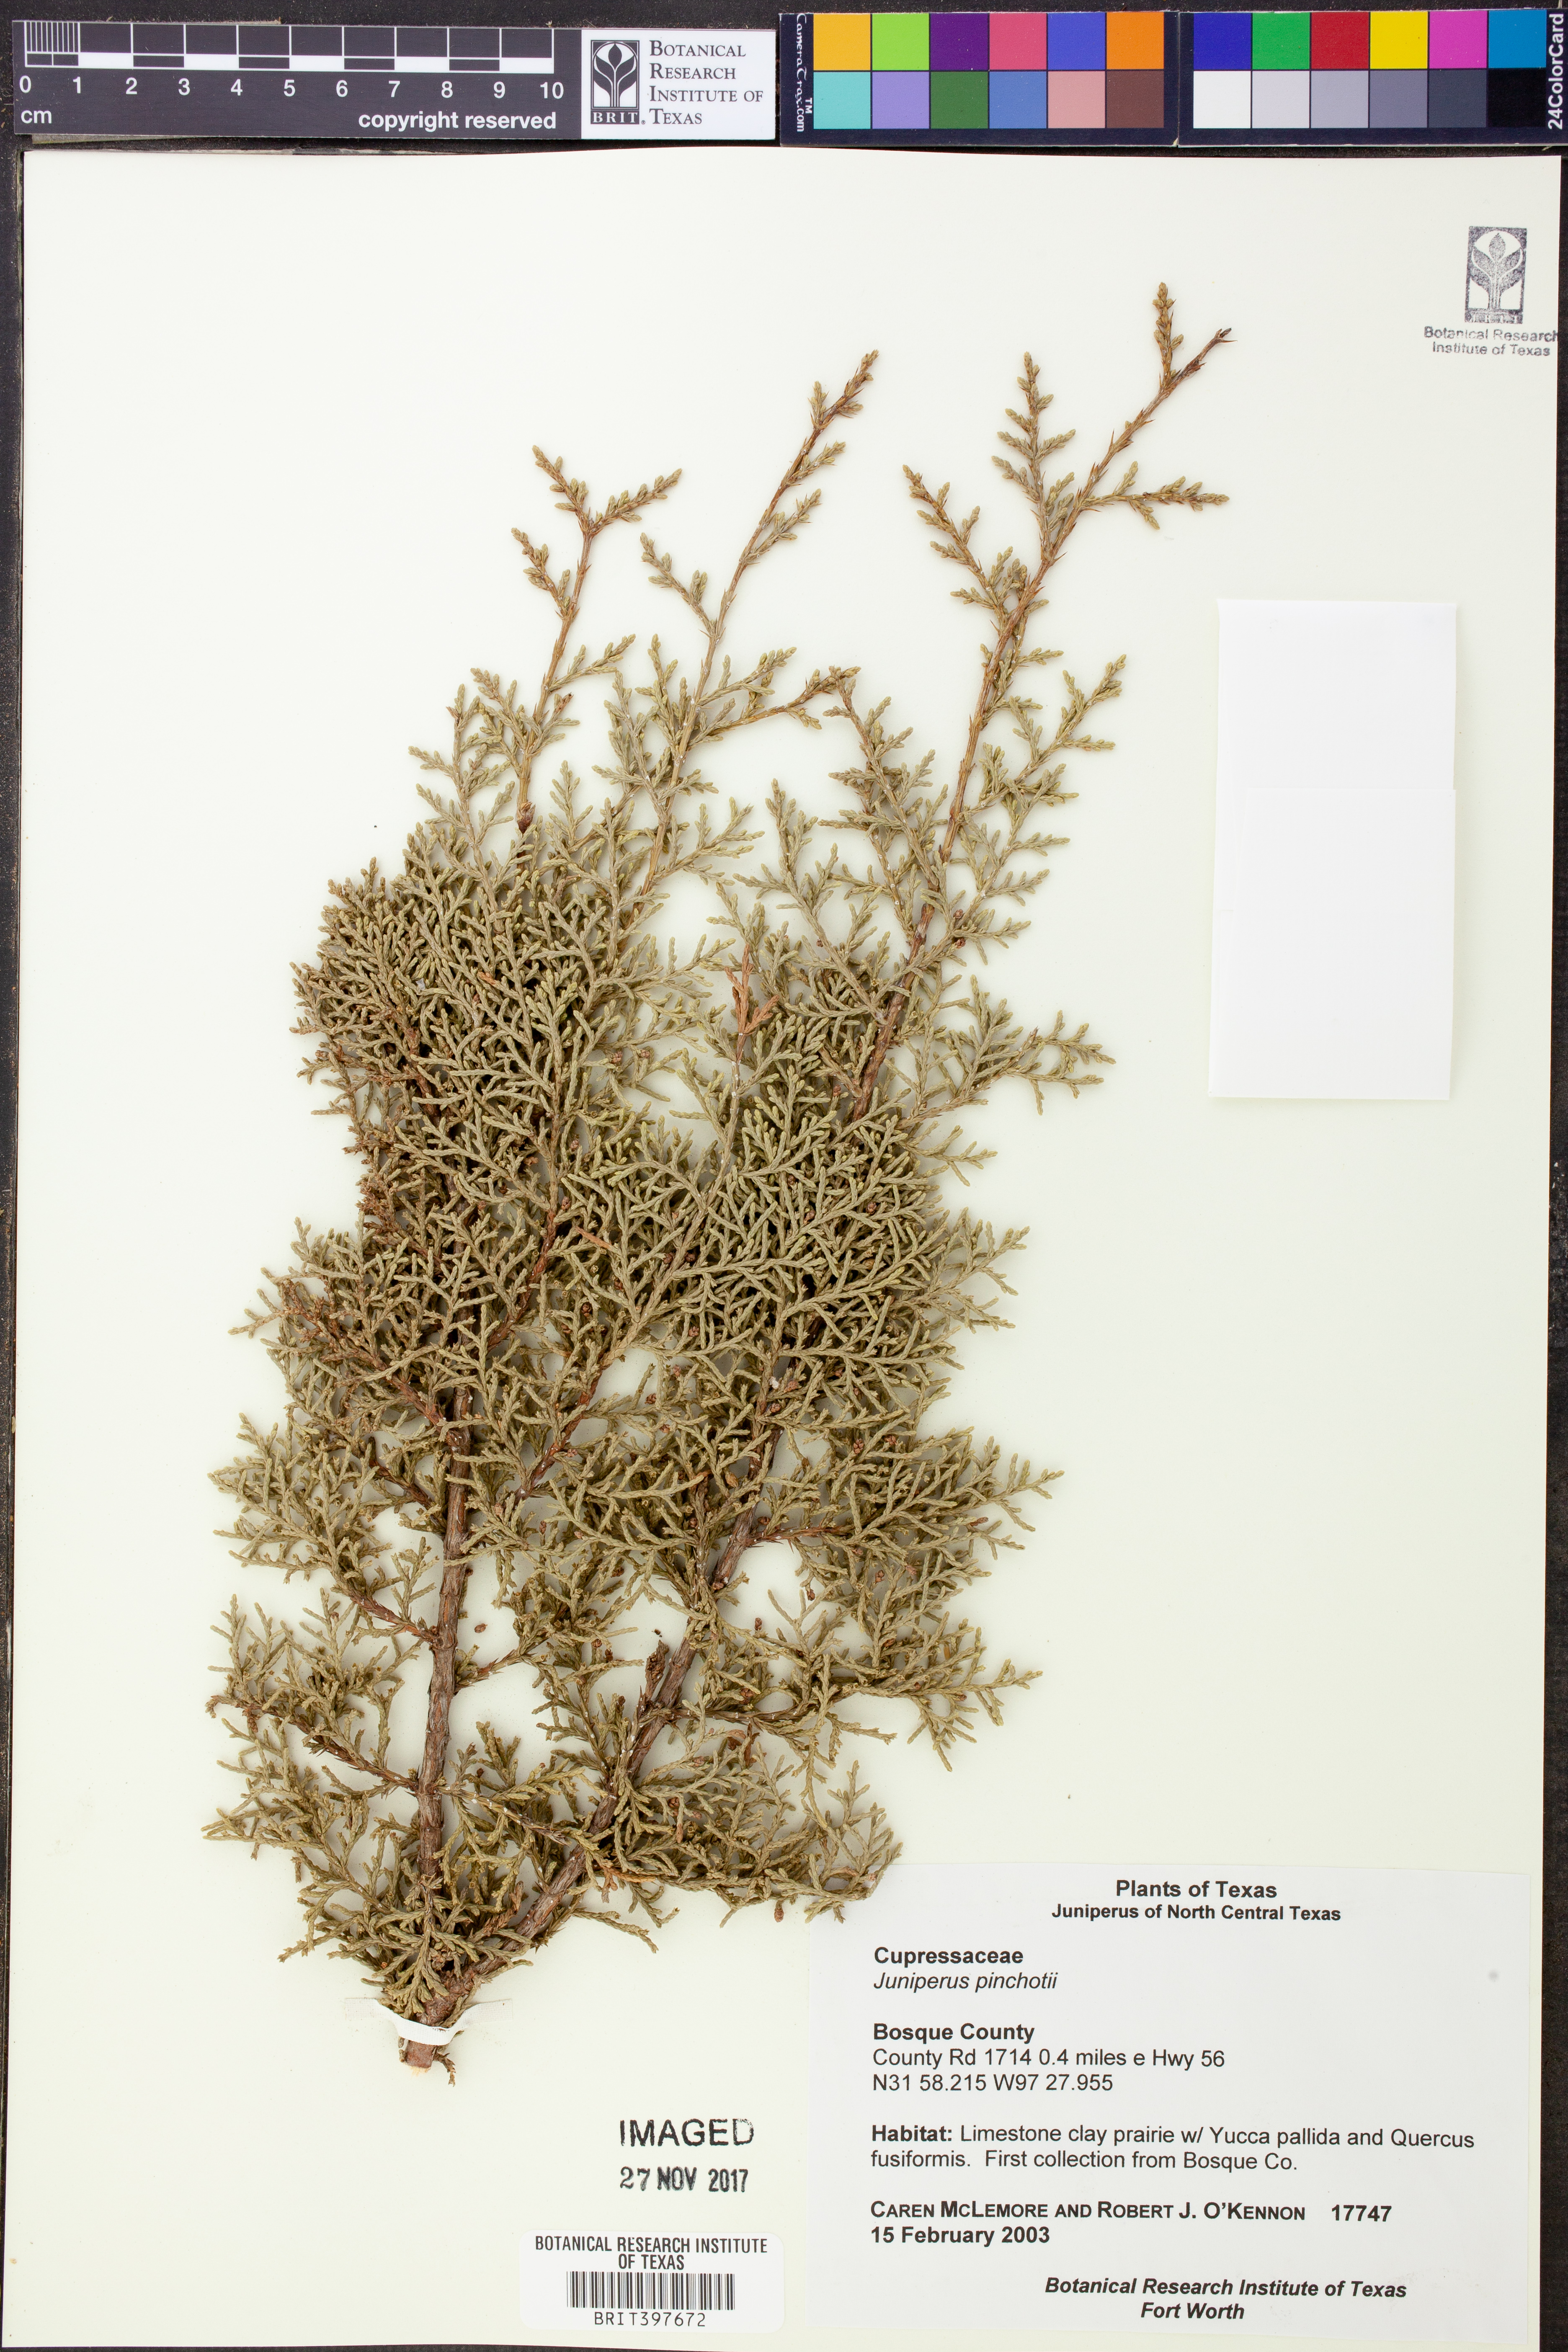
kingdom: Plantae
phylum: Tracheophyta
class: Pinopsida
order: Pinales
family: Cupressaceae
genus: Juniperus
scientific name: Juniperus pinchotii
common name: Pinchot juniper
